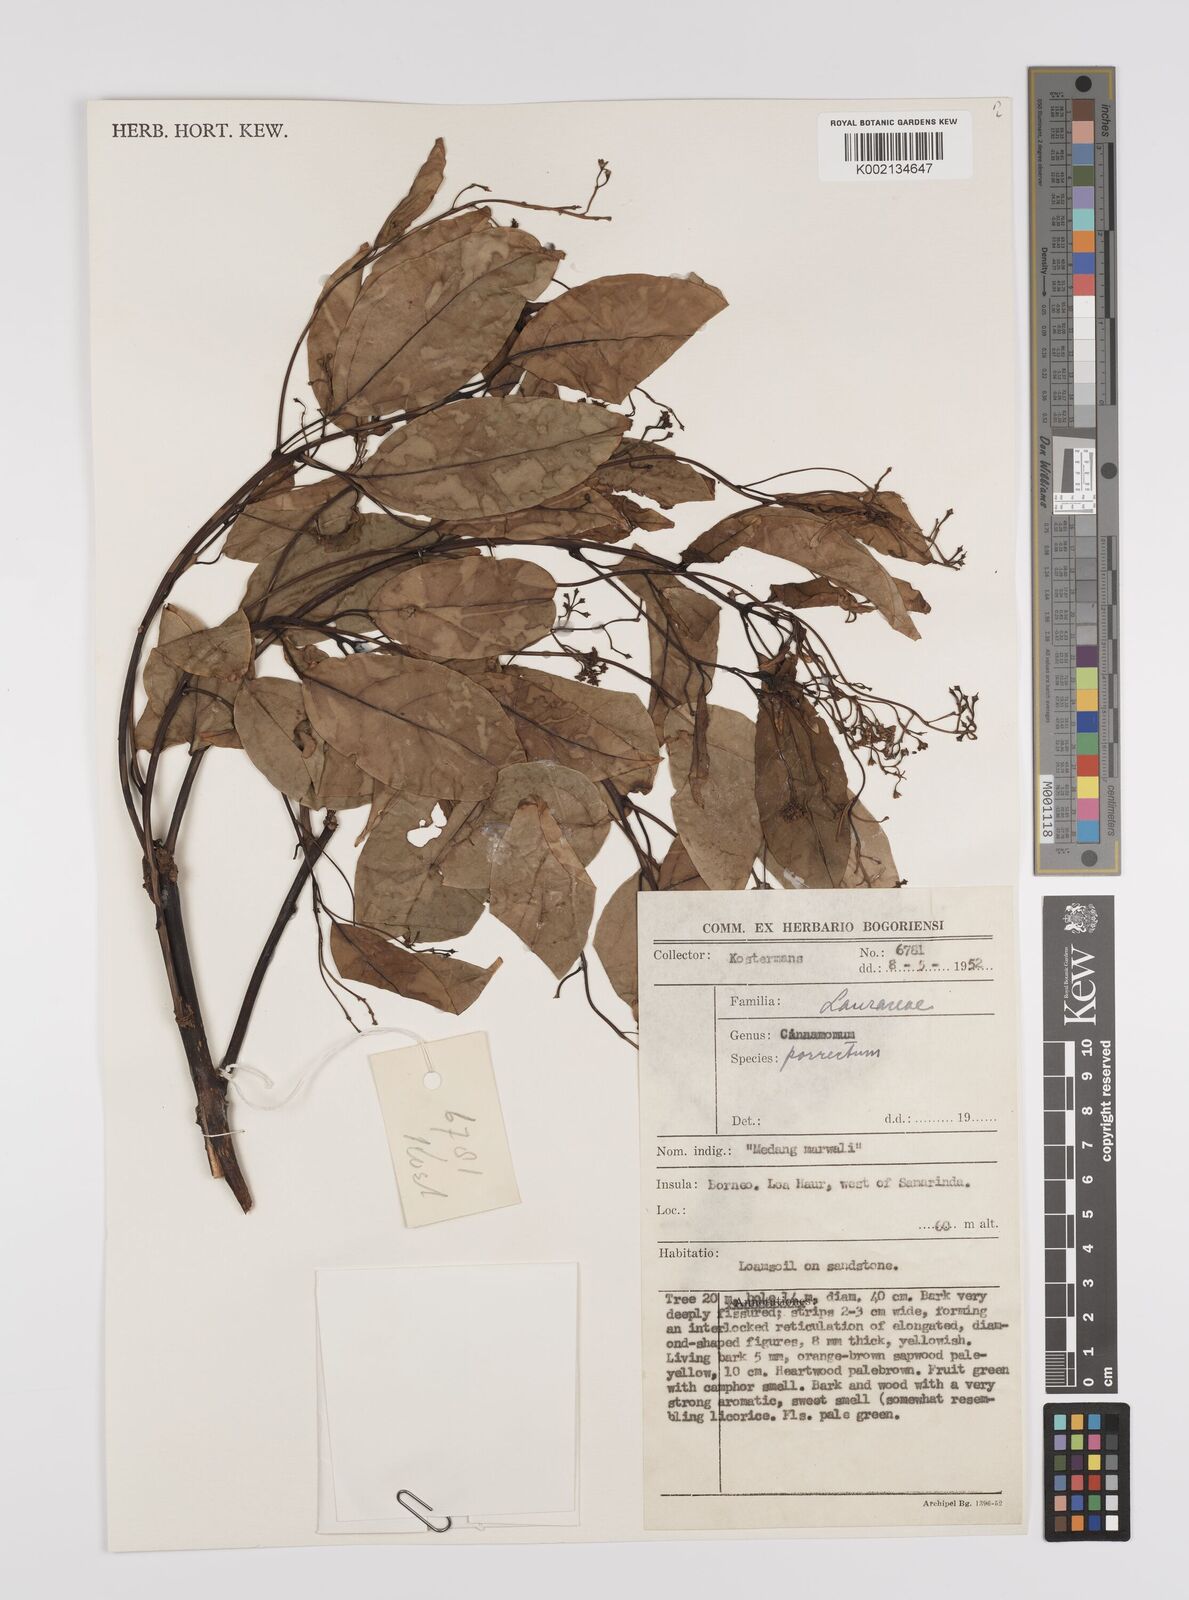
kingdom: Plantae
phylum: Tracheophyta
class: Magnoliopsida
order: Laurales
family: Lauraceae
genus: Cinnamomum
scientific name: Cinnamomum parthenoxylon
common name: Martaban camphor wood
